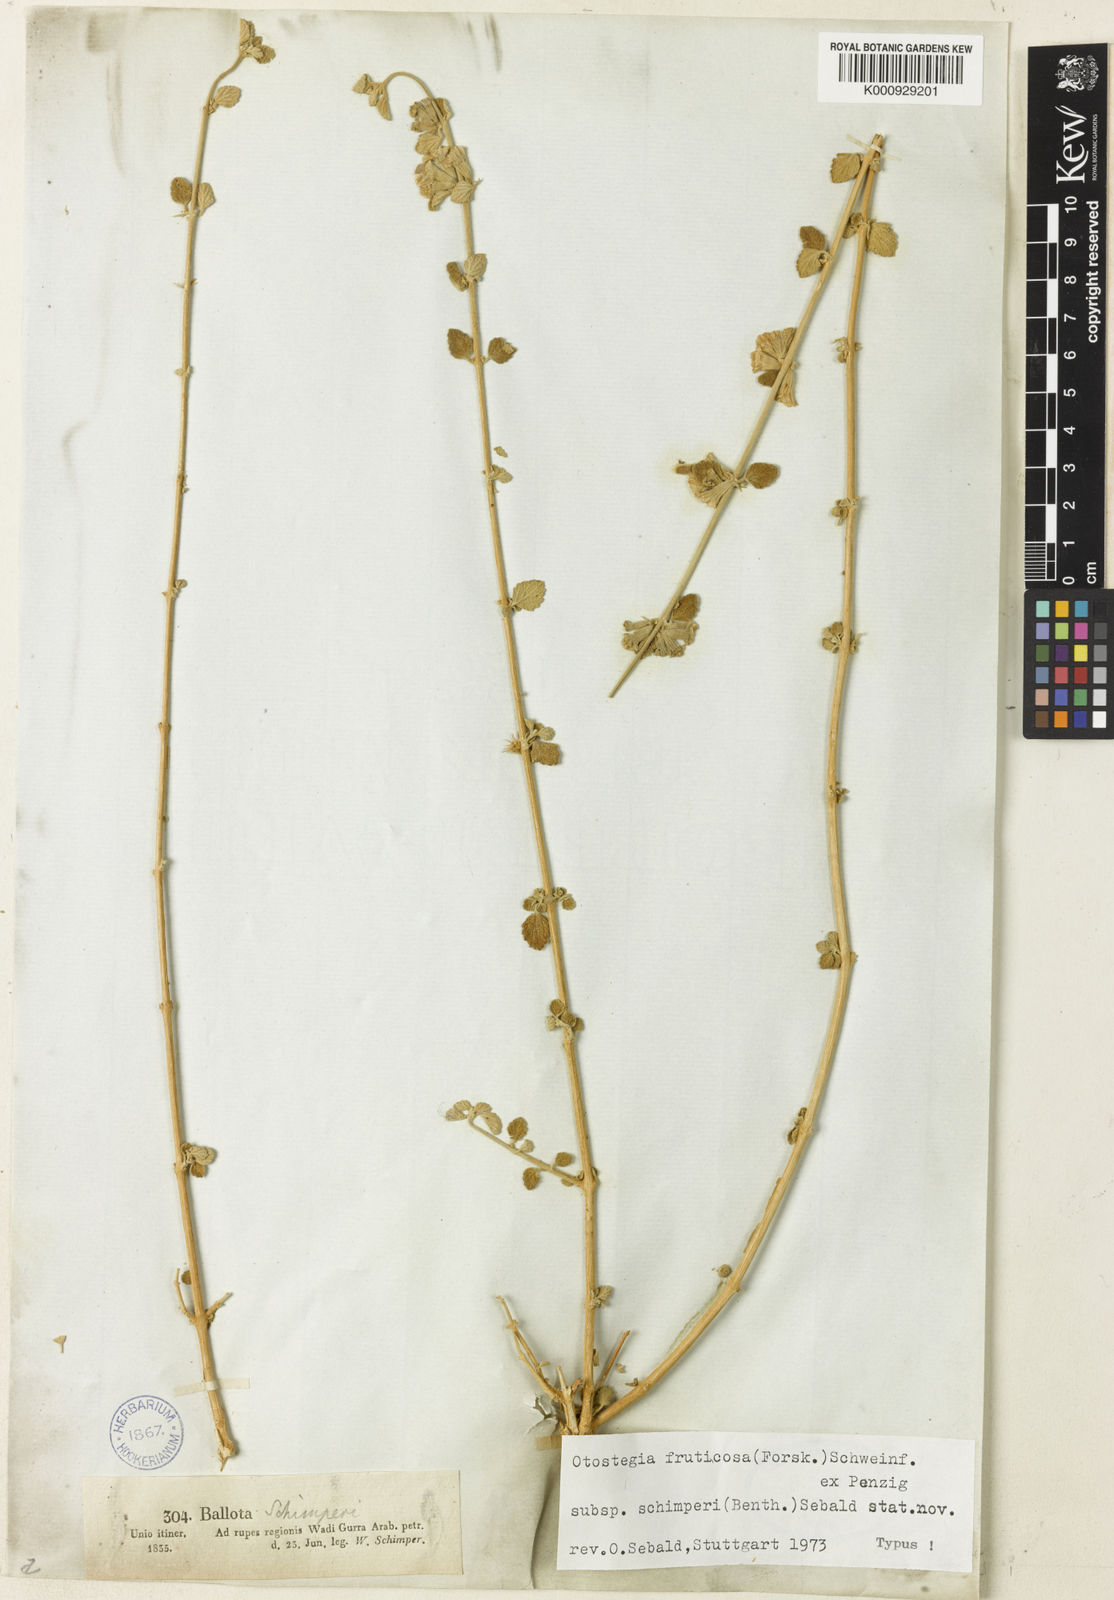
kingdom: Plantae
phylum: Tracheophyta
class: Magnoliopsida
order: Lamiales
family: Lamiaceae
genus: Otostegia
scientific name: Otostegia fruticosa
